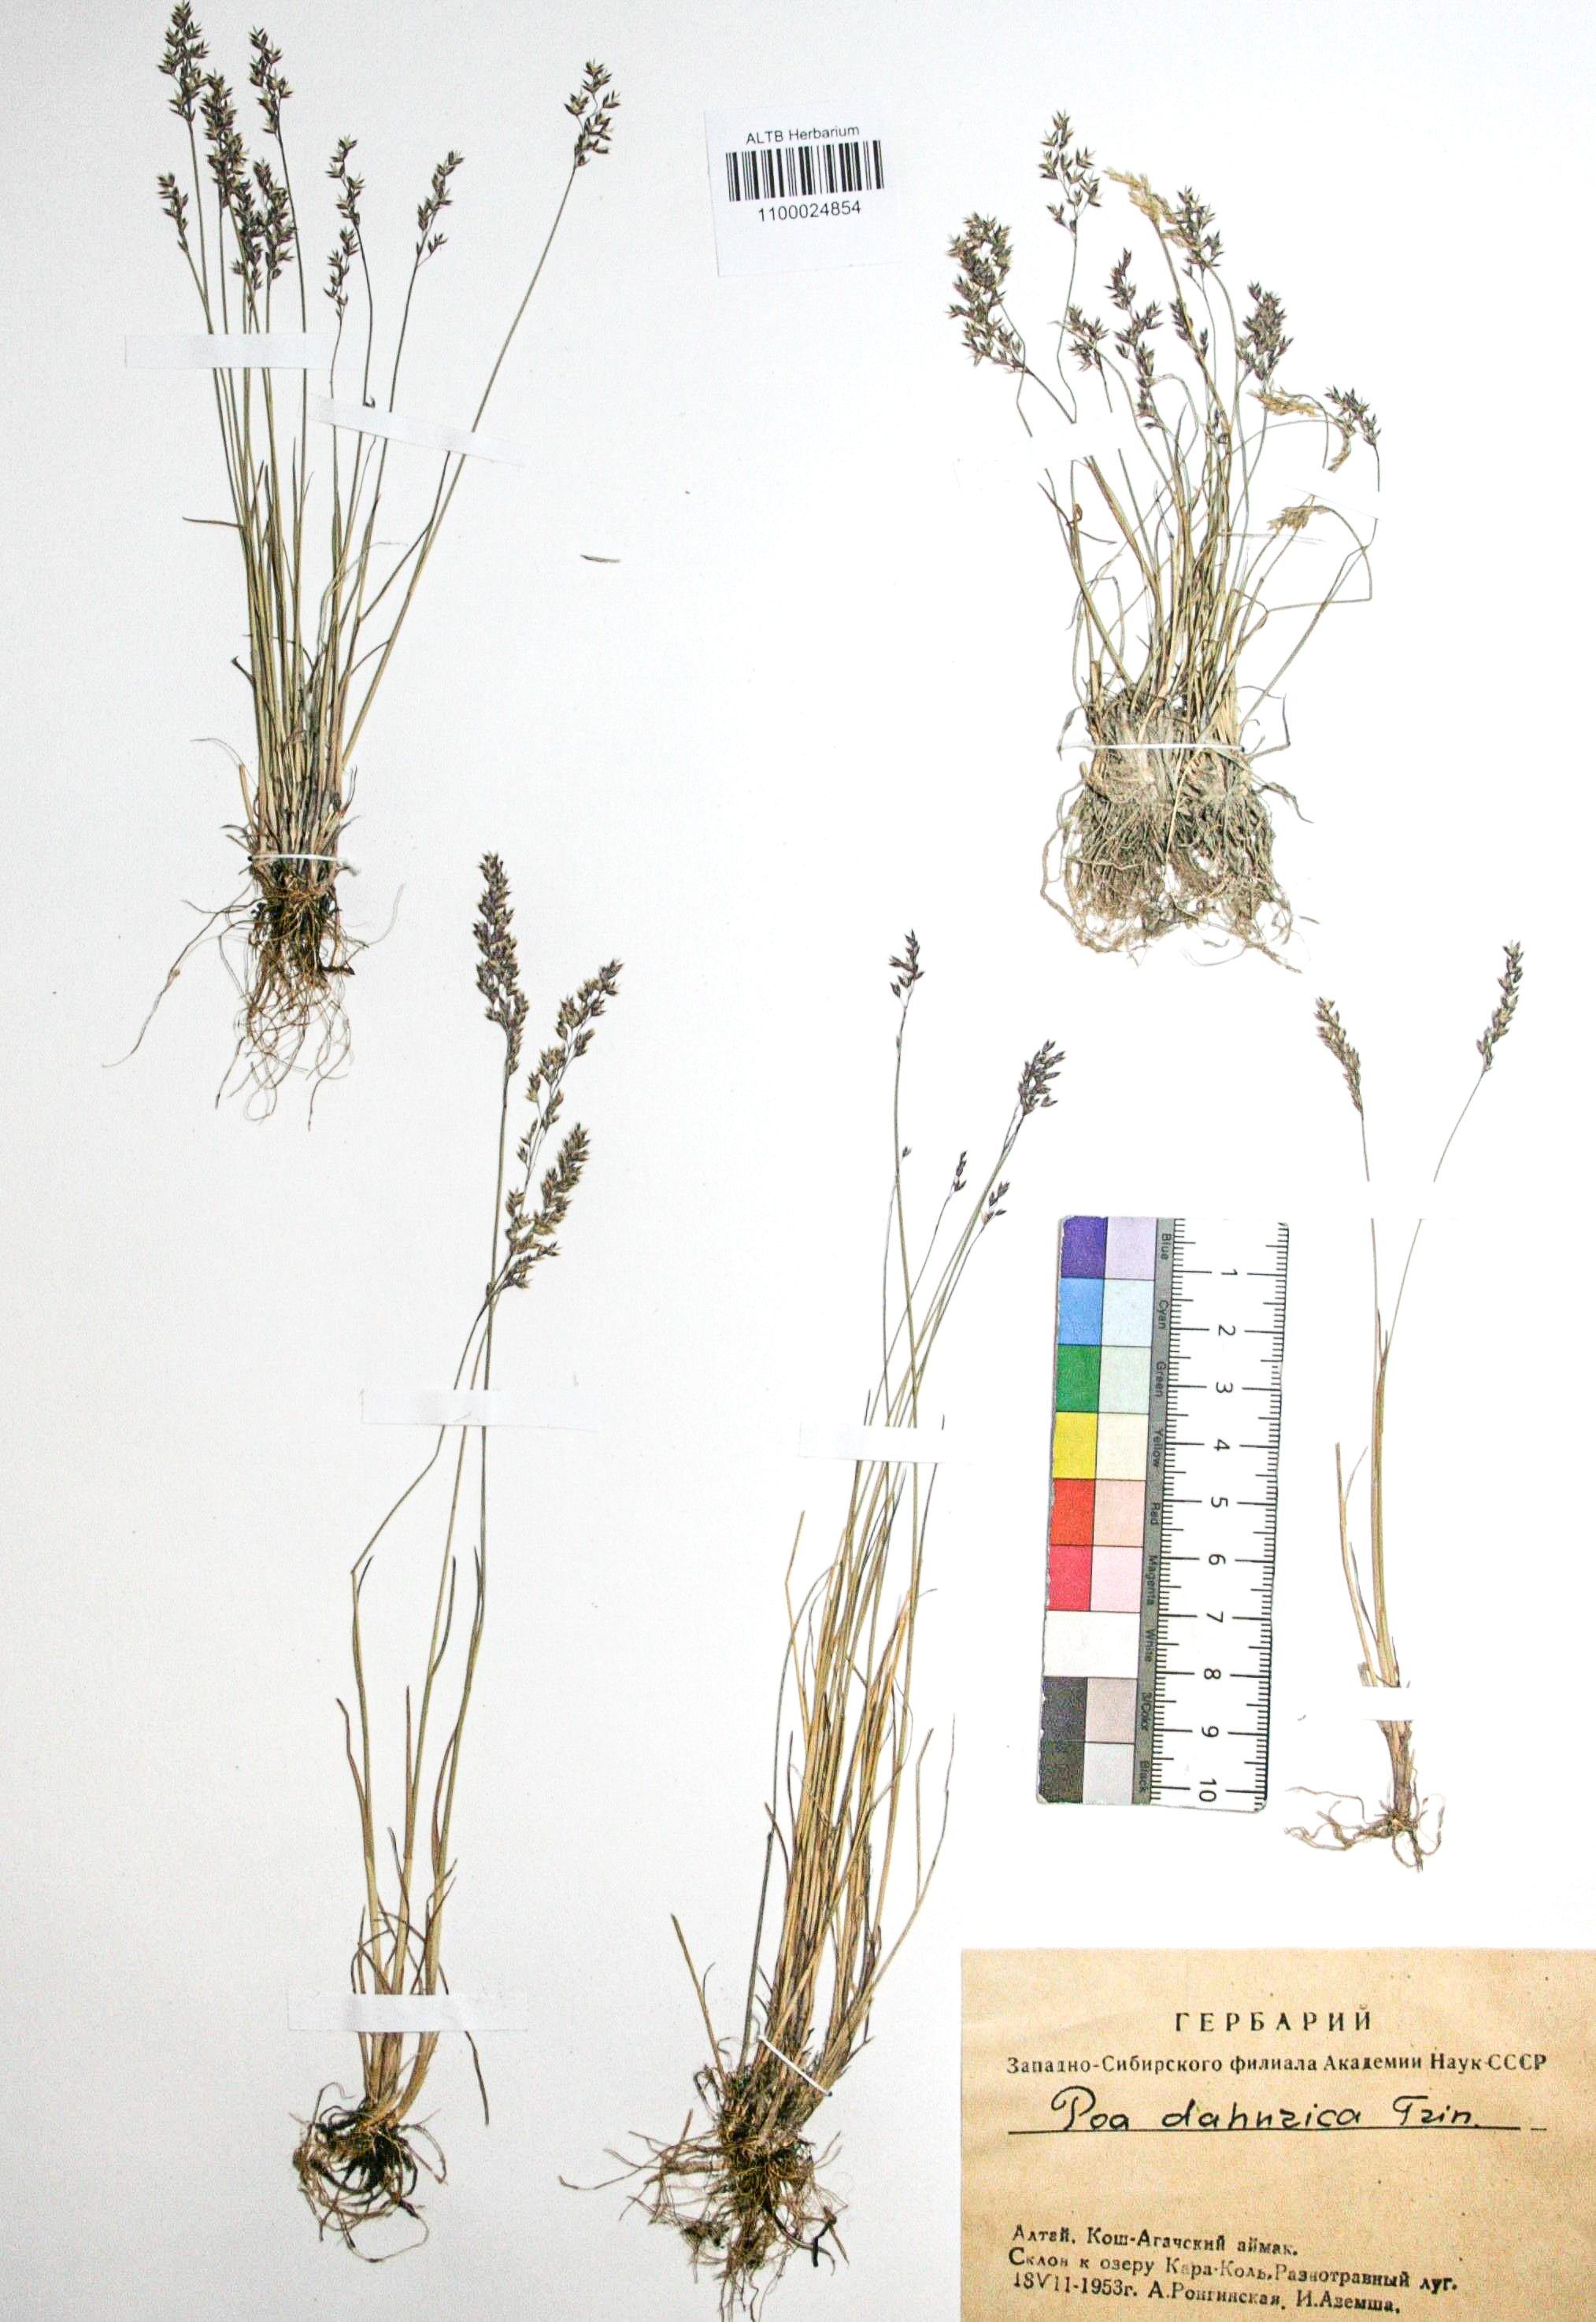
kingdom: Plantae
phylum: Tracheophyta
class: Liliopsida
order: Poales
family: Poaceae
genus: Poa
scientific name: Poa attenuata
